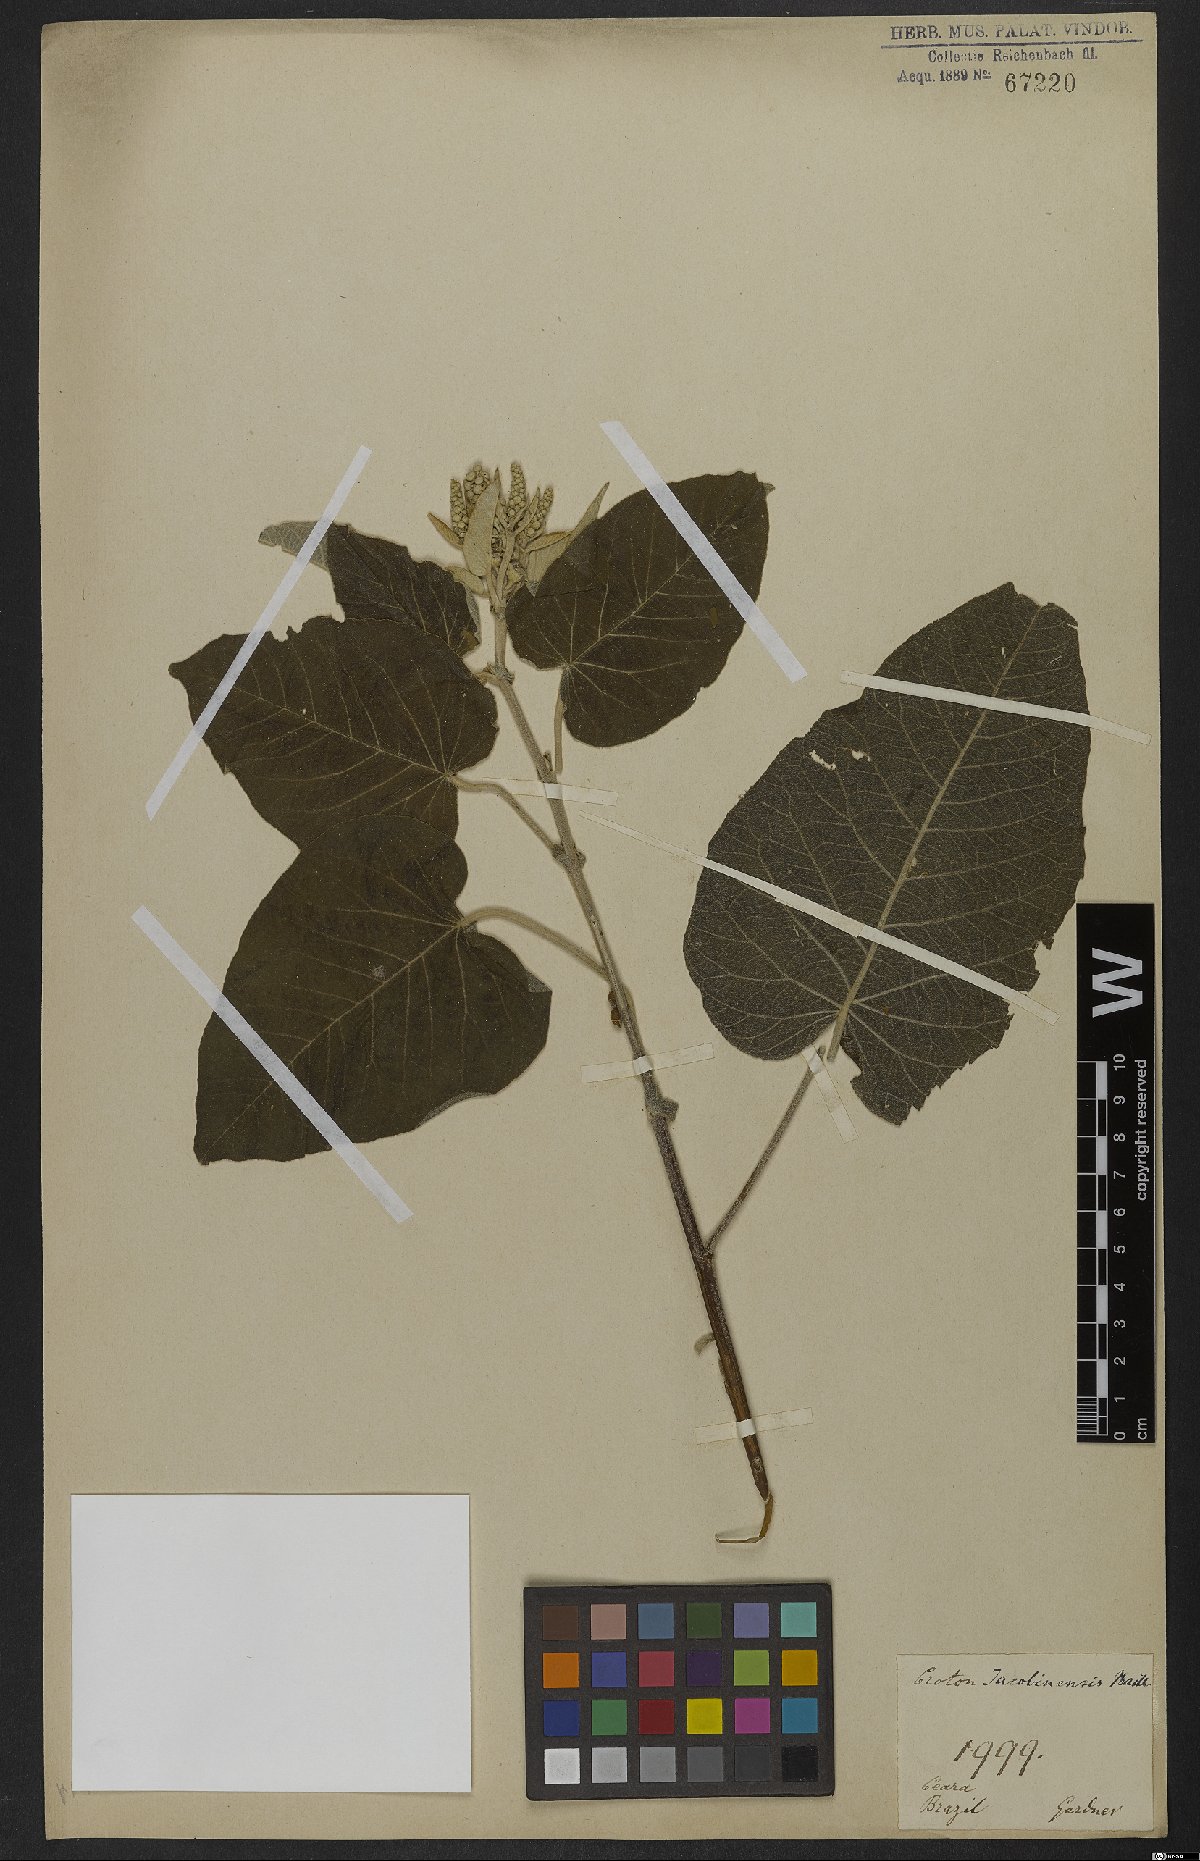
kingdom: Plantae
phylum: Tracheophyta
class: Magnoliopsida
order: Malpighiales
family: Euphorbiaceae
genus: Croton
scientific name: Croton jacobinensis
